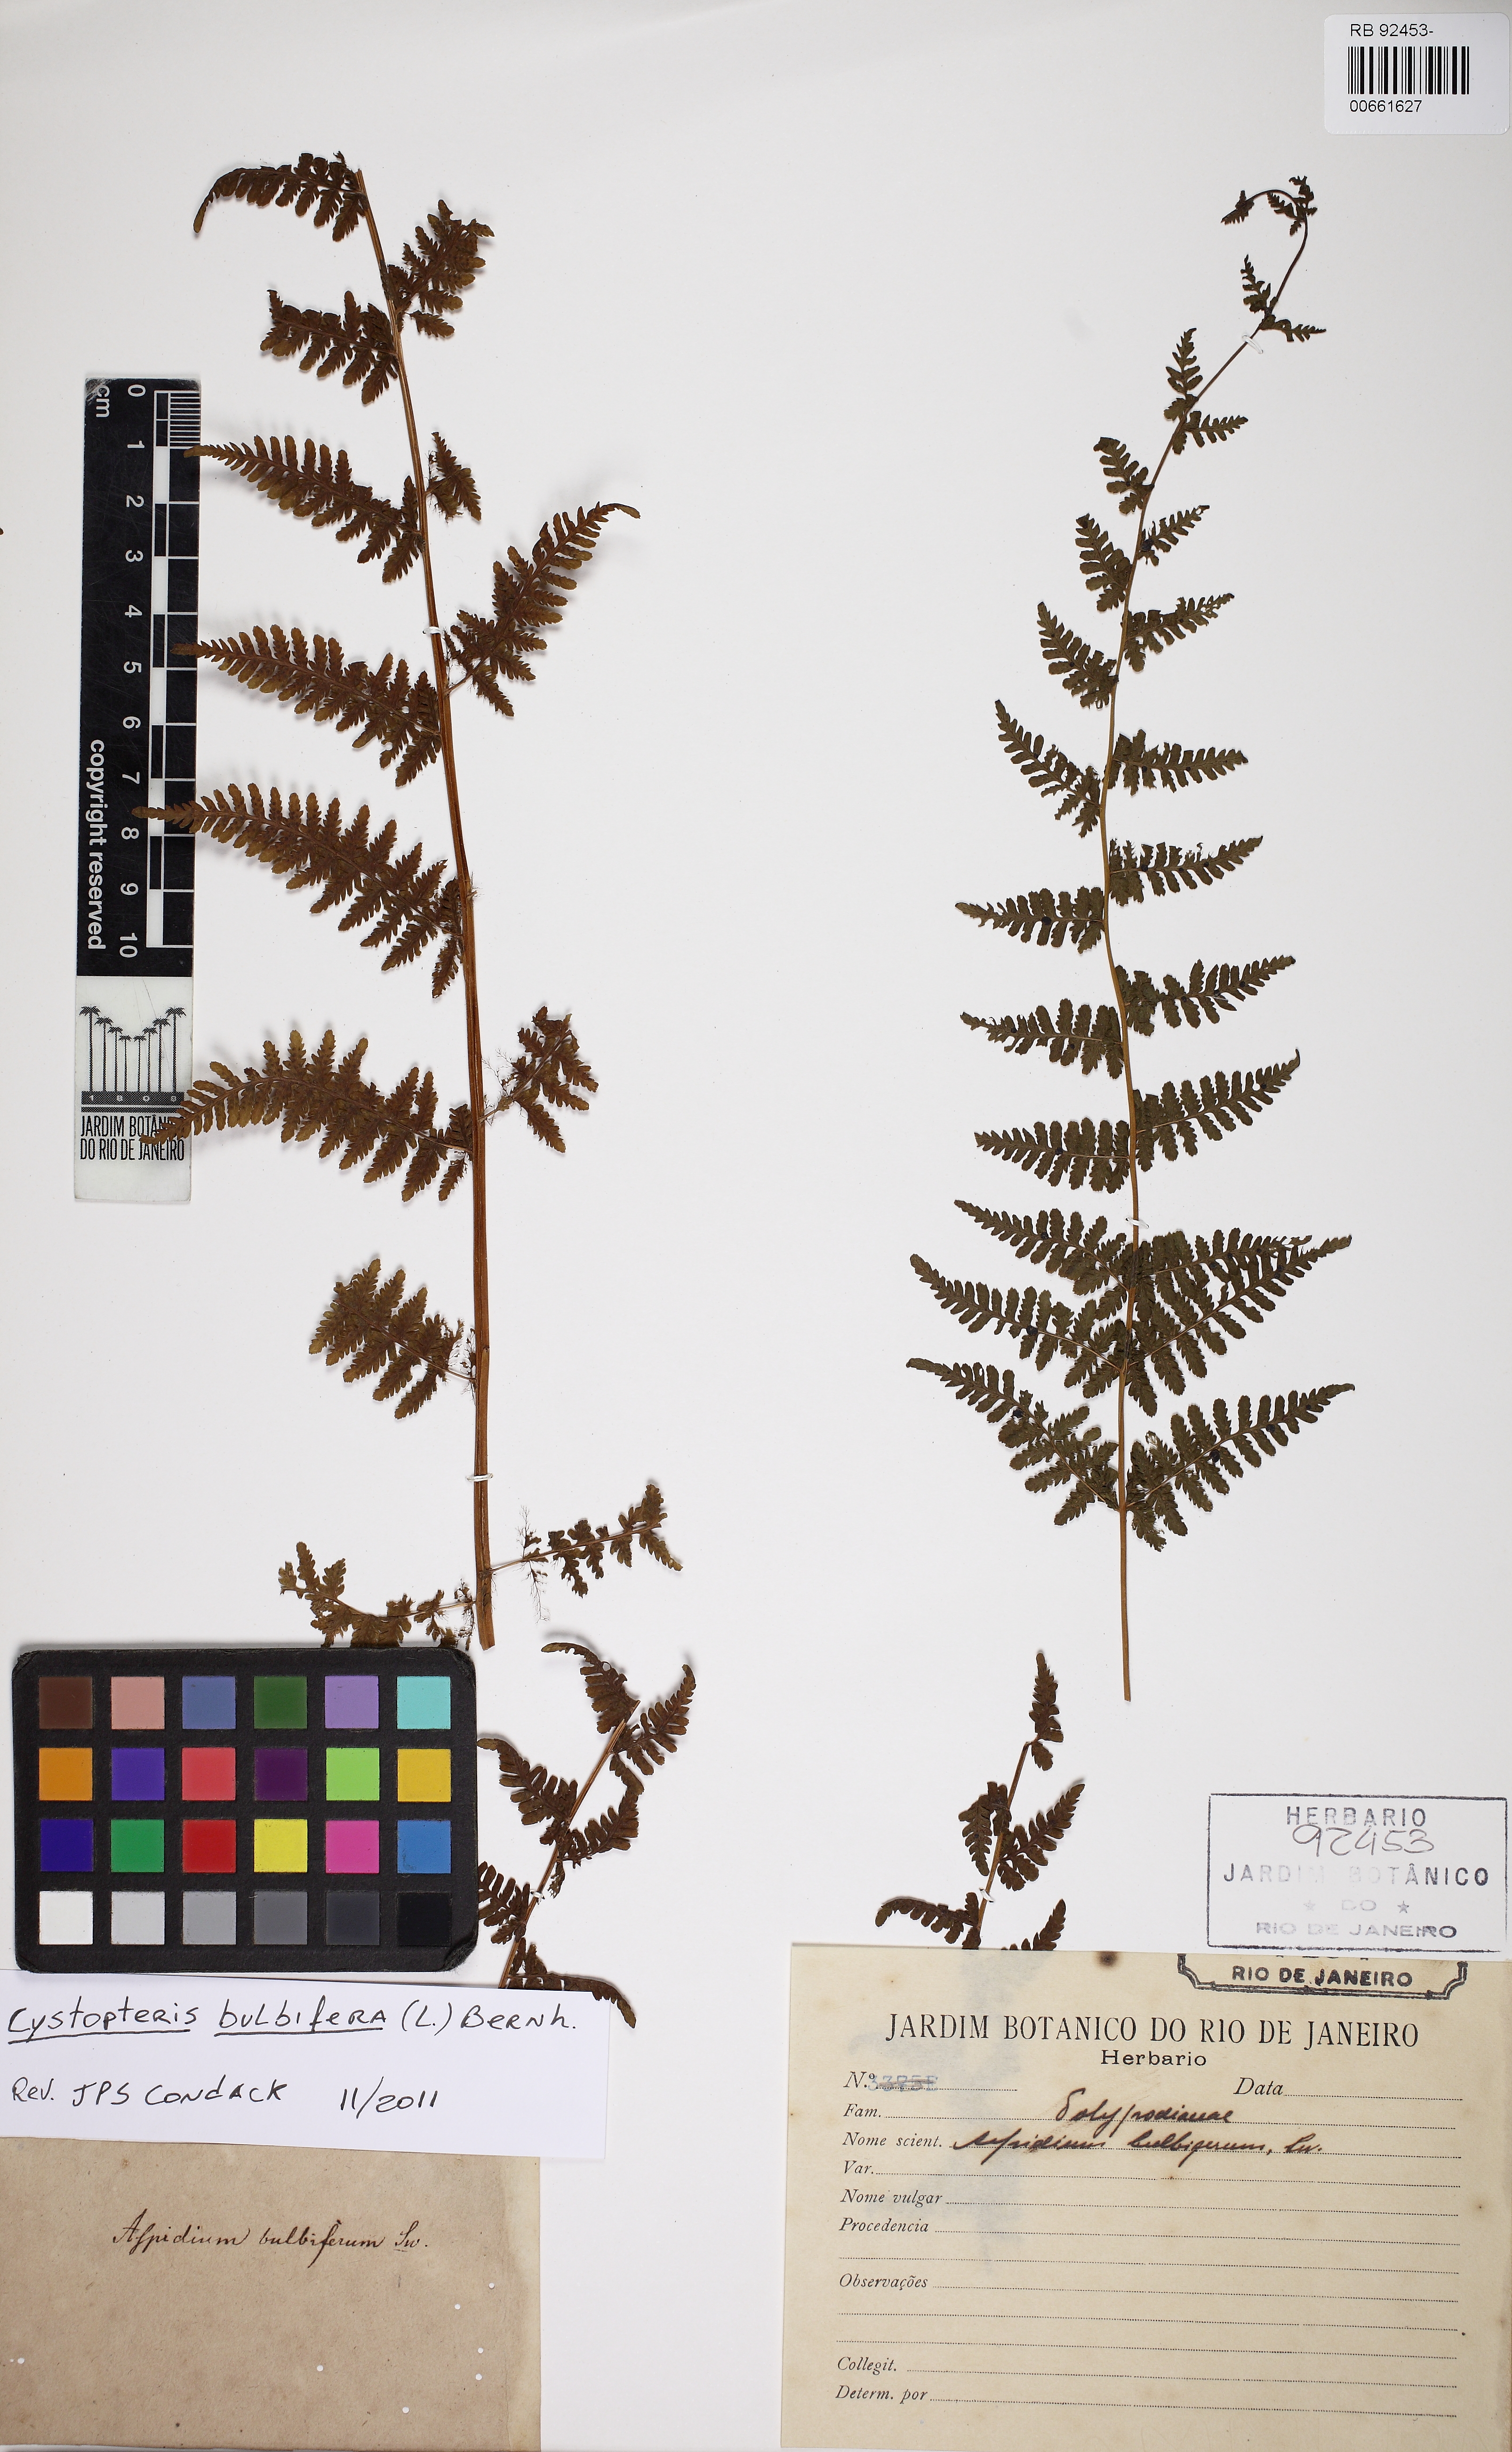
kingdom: Plantae
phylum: Tracheophyta
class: Polypodiopsida
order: Polypodiales
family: Cystopteridaceae
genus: Cystopteris
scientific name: Cystopteris bulbifera
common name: Bulblet bladder fern
